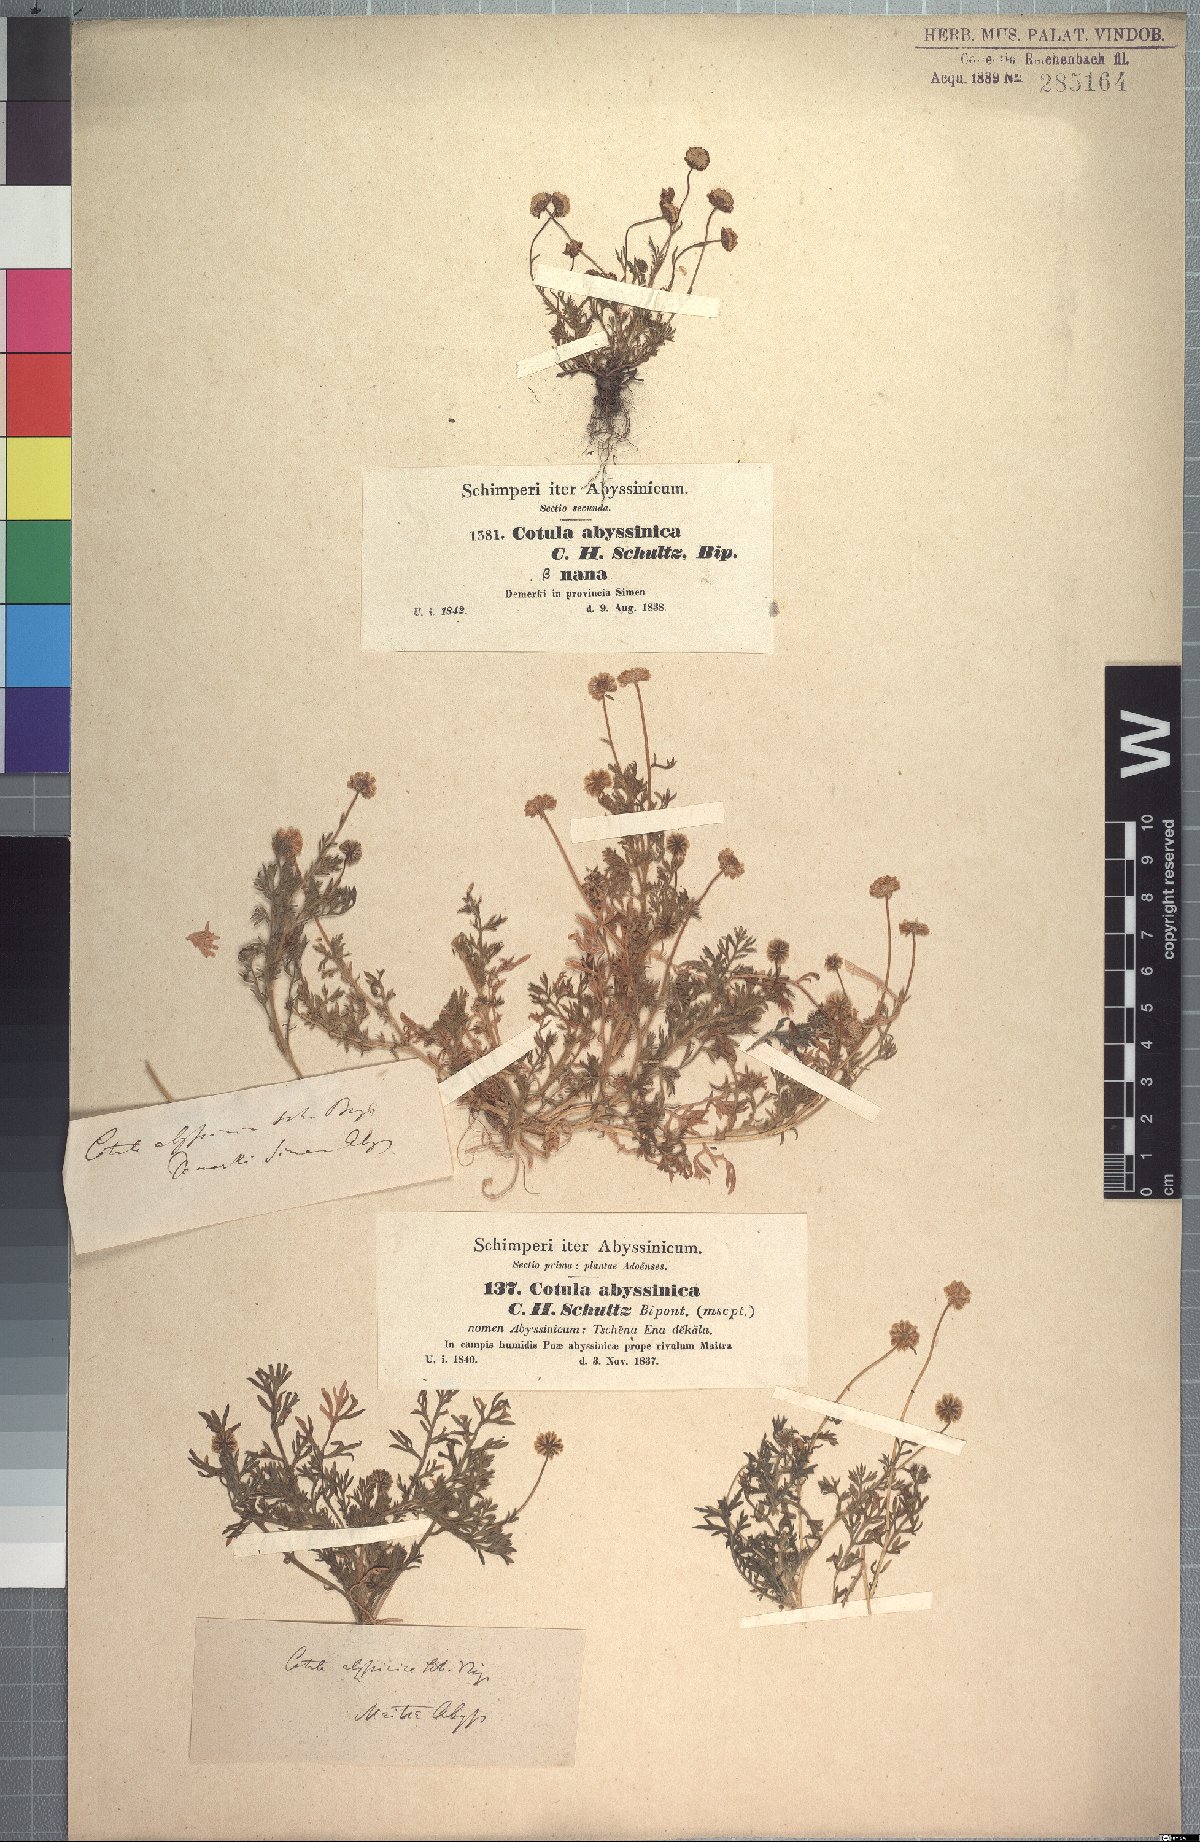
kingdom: Plantae
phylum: Tracheophyta
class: Magnoliopsida
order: Asterales
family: Asteraceae
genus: Cotula
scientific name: Cotula abyssinica
